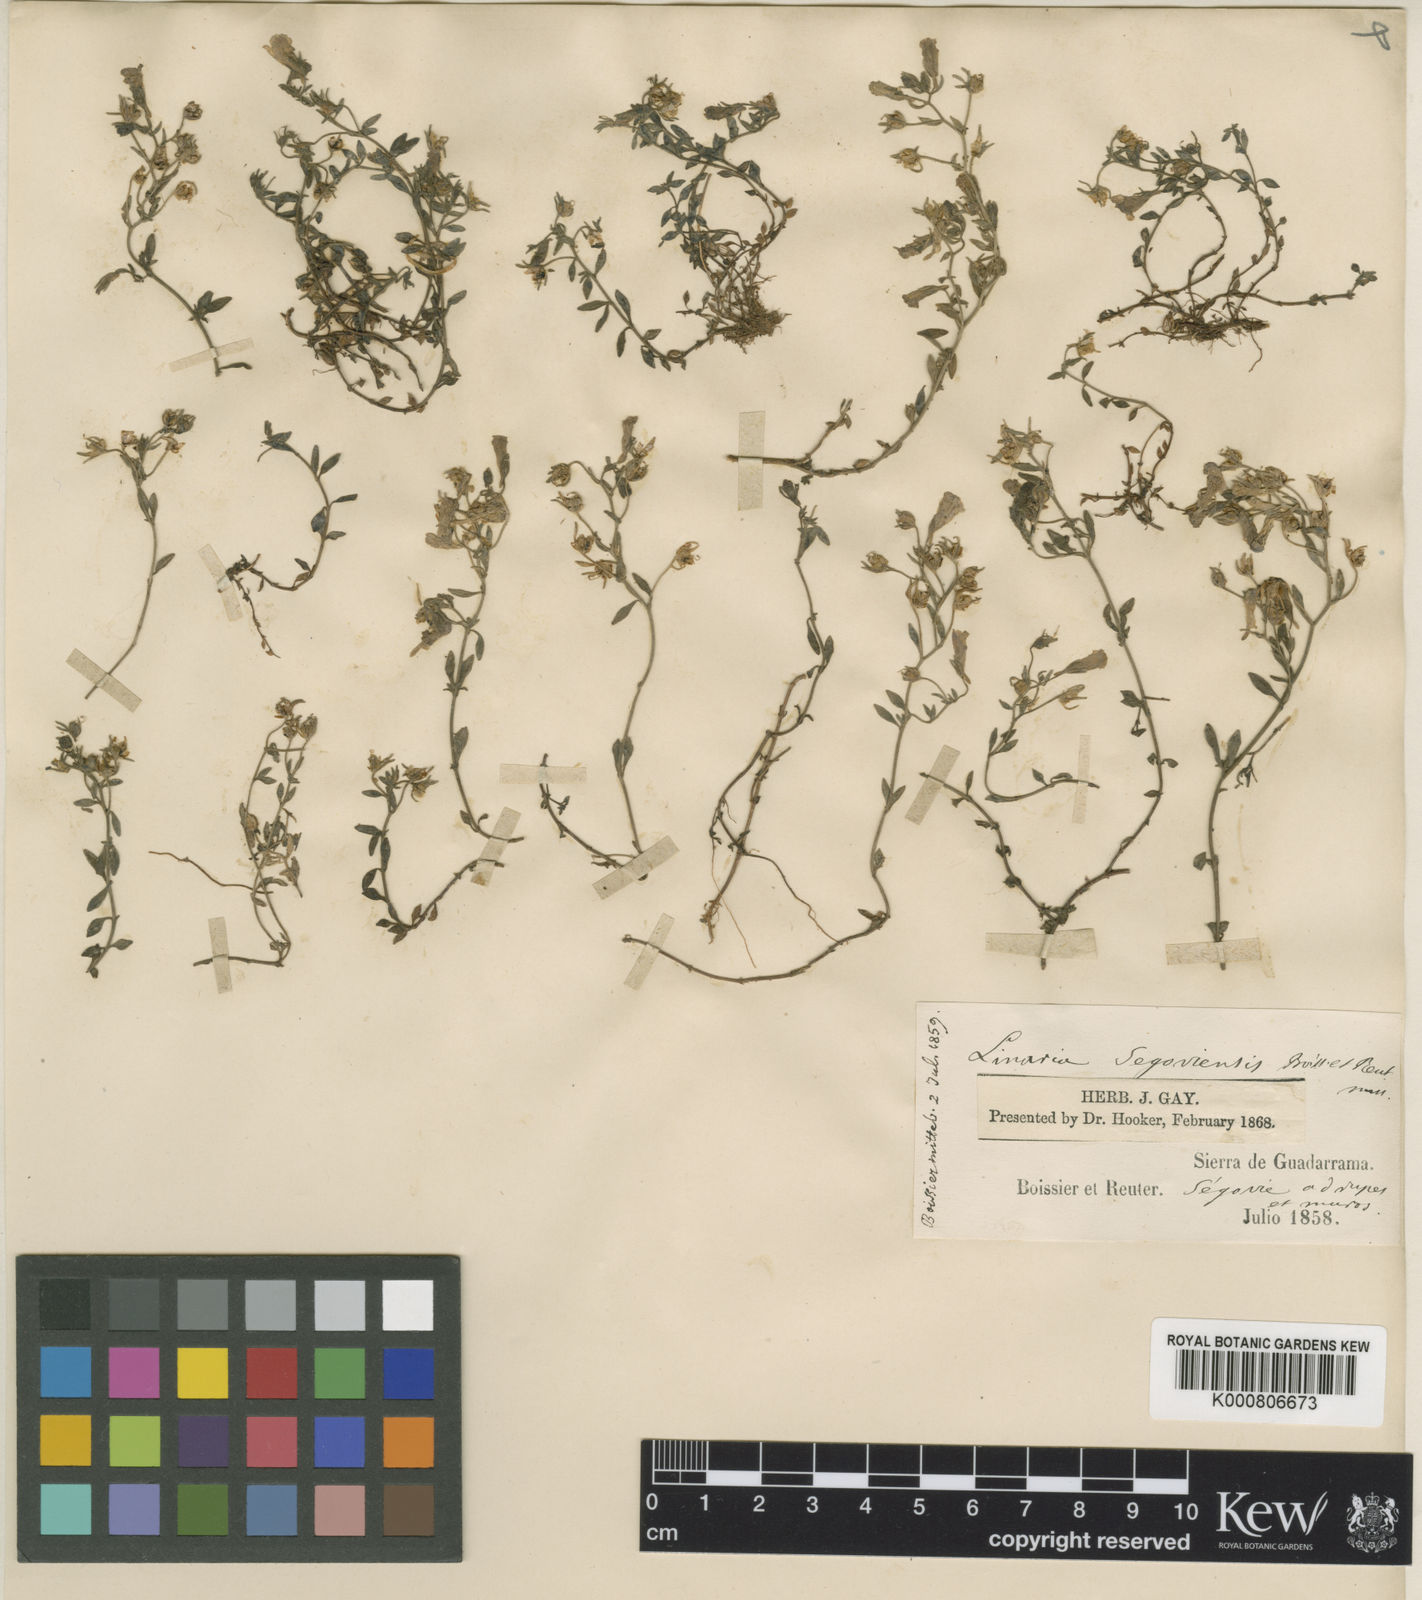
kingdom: Plantae
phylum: Tracheophyta
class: Magnoliopsida
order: Lamiales
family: Plantaginaceae
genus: Linaria
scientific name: Linaria
